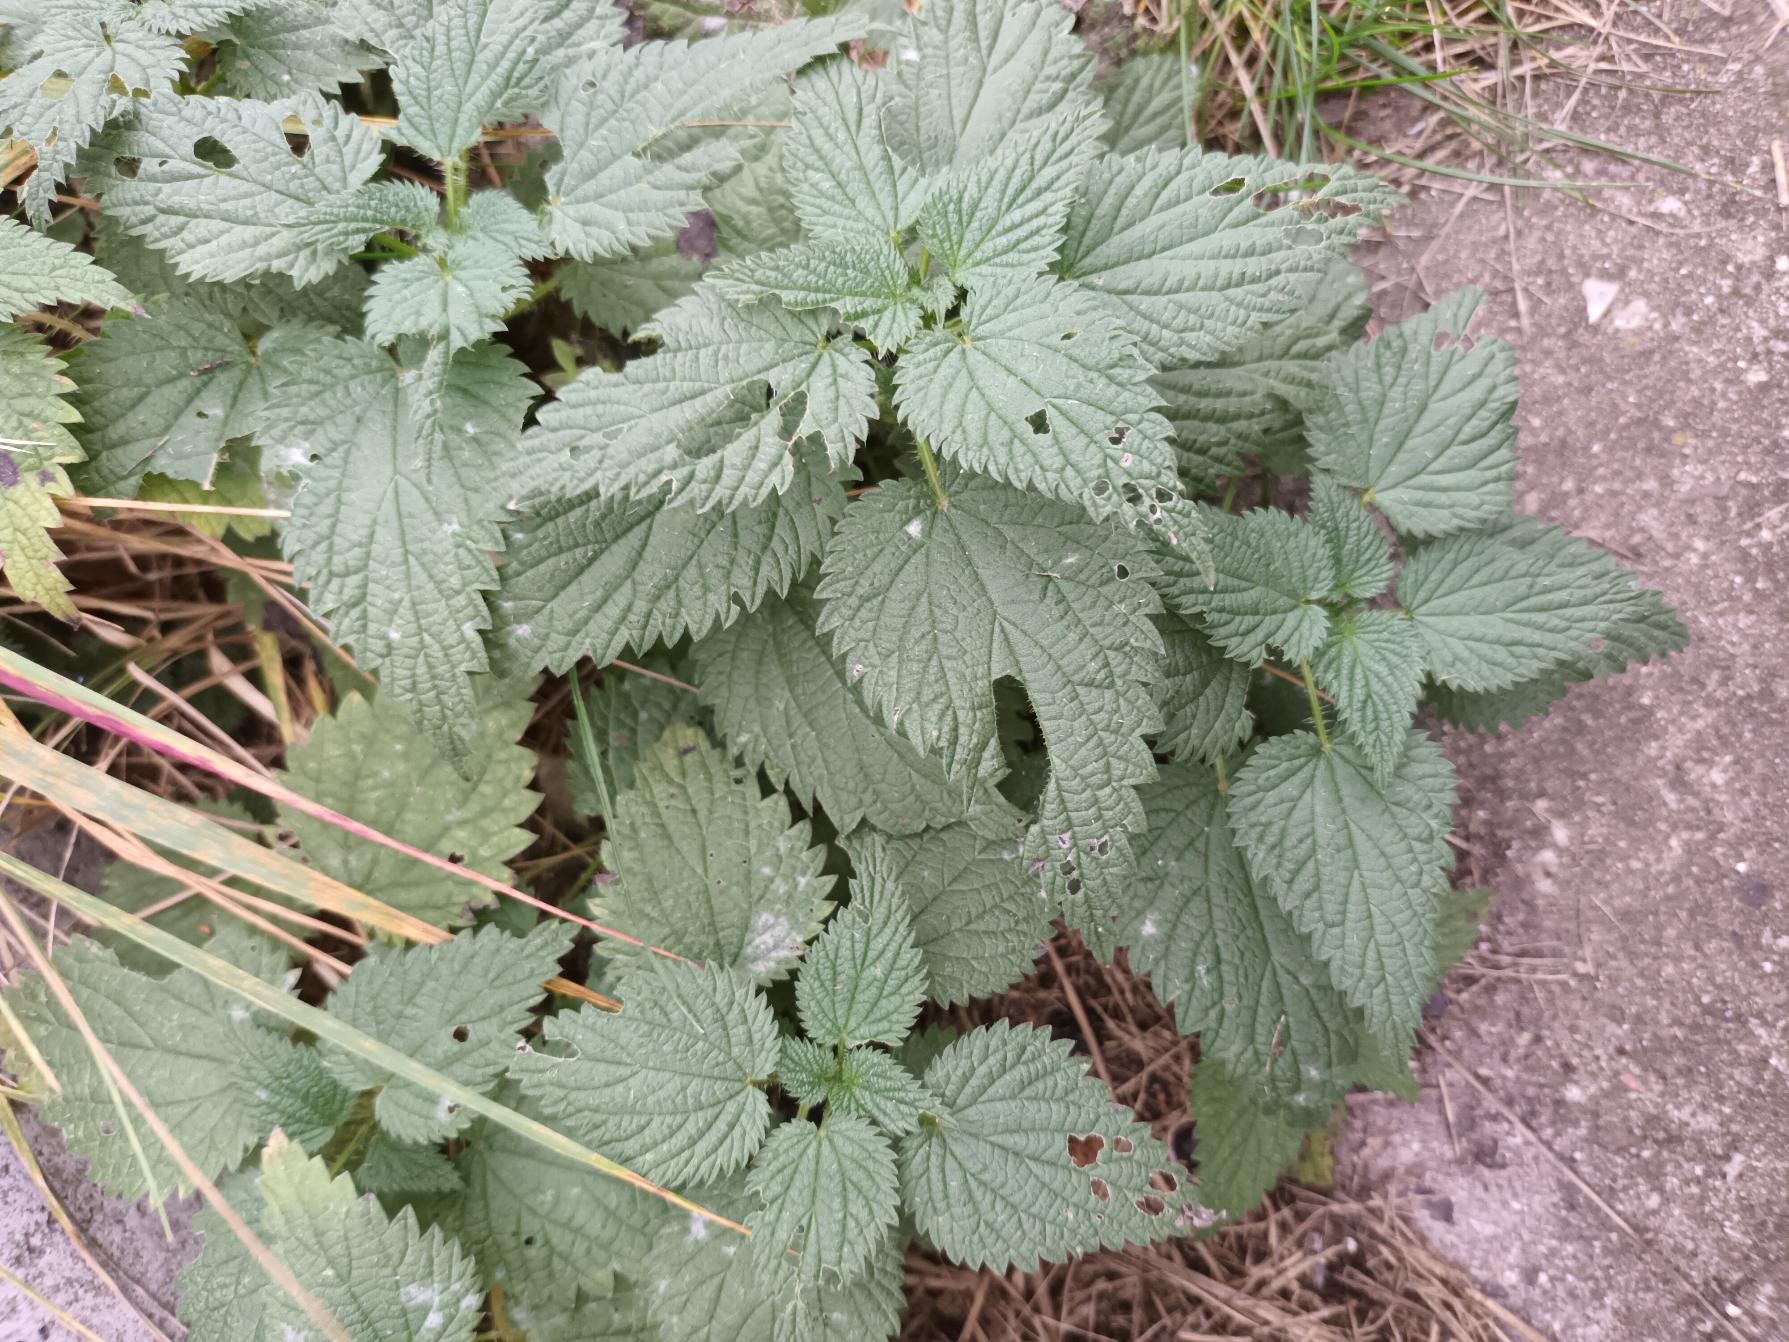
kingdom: Plantae
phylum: Tracheophyta
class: Magnoliopsida
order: Rosales
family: Urticaceae
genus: Urtica
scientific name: Urtica dioica
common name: Stor nælde
